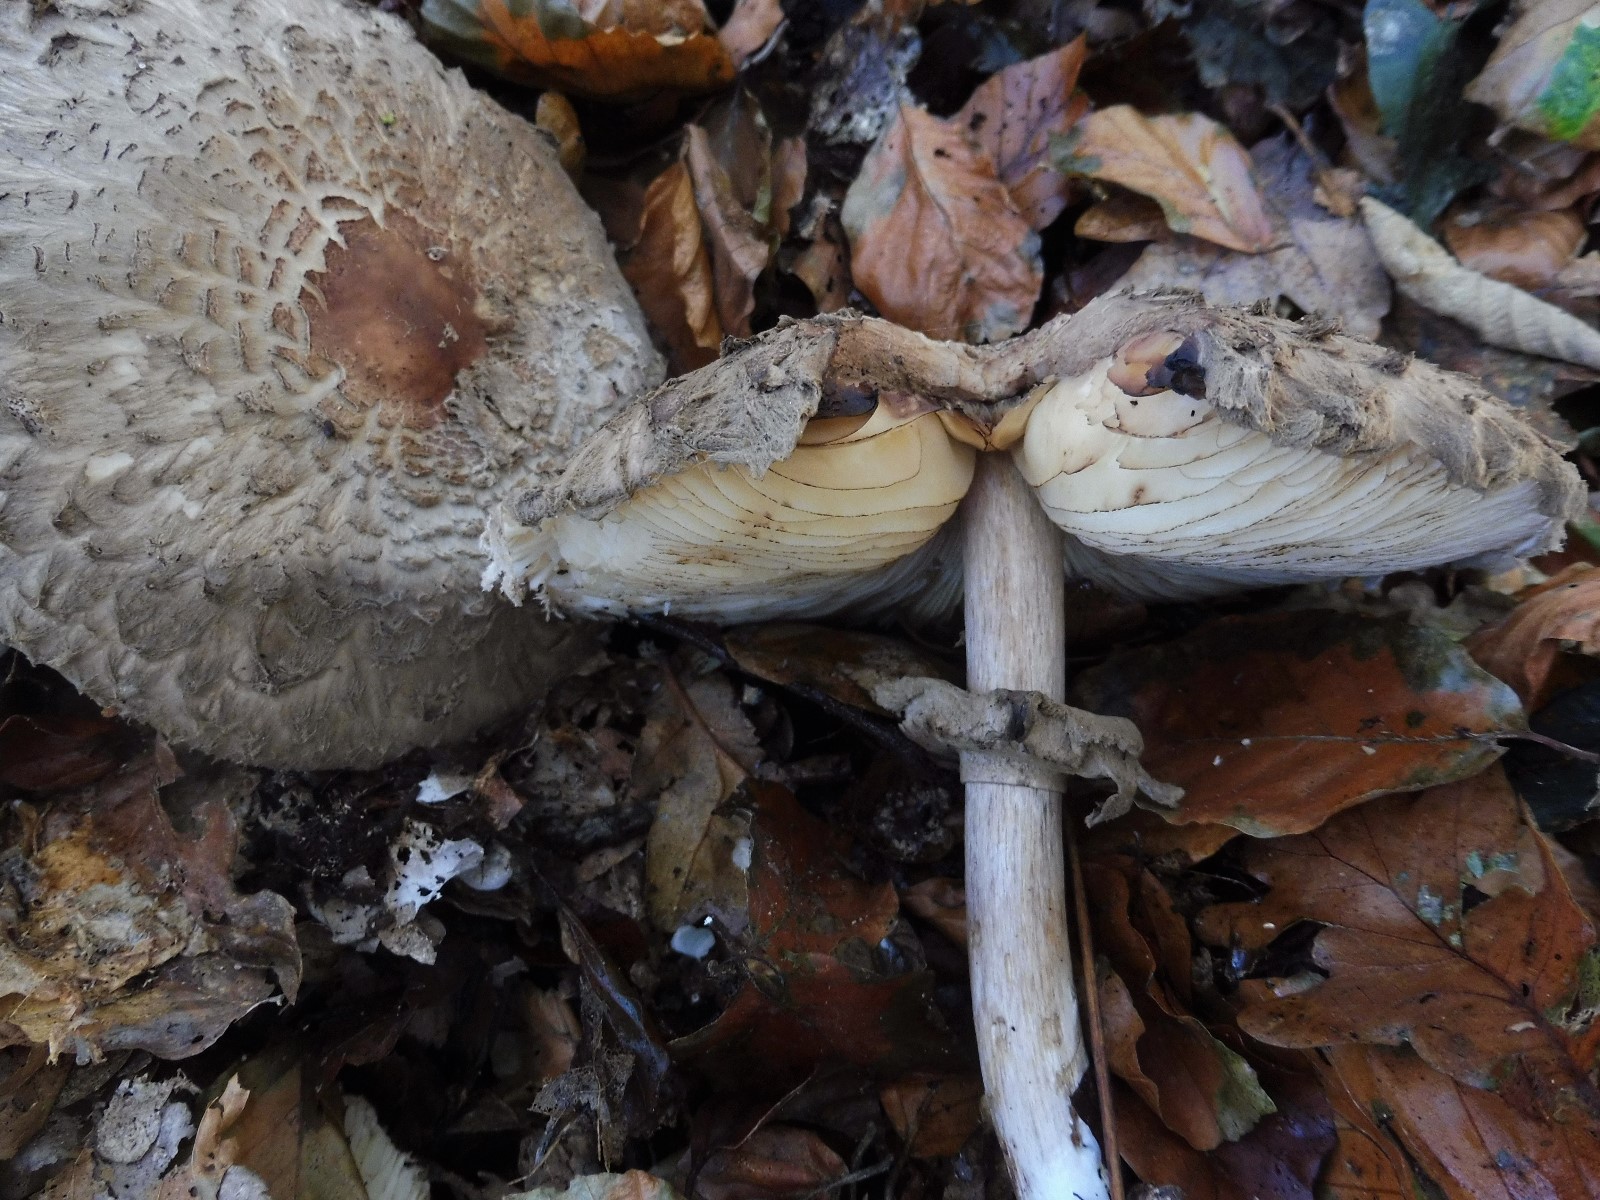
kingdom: Fungi
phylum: Basidiomycota
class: Agaricomycetes
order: Agaricales
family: Agaricaceae
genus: Chlorophyllum
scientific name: Chlorophyllum olivieri
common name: almindelig rabarberhat
